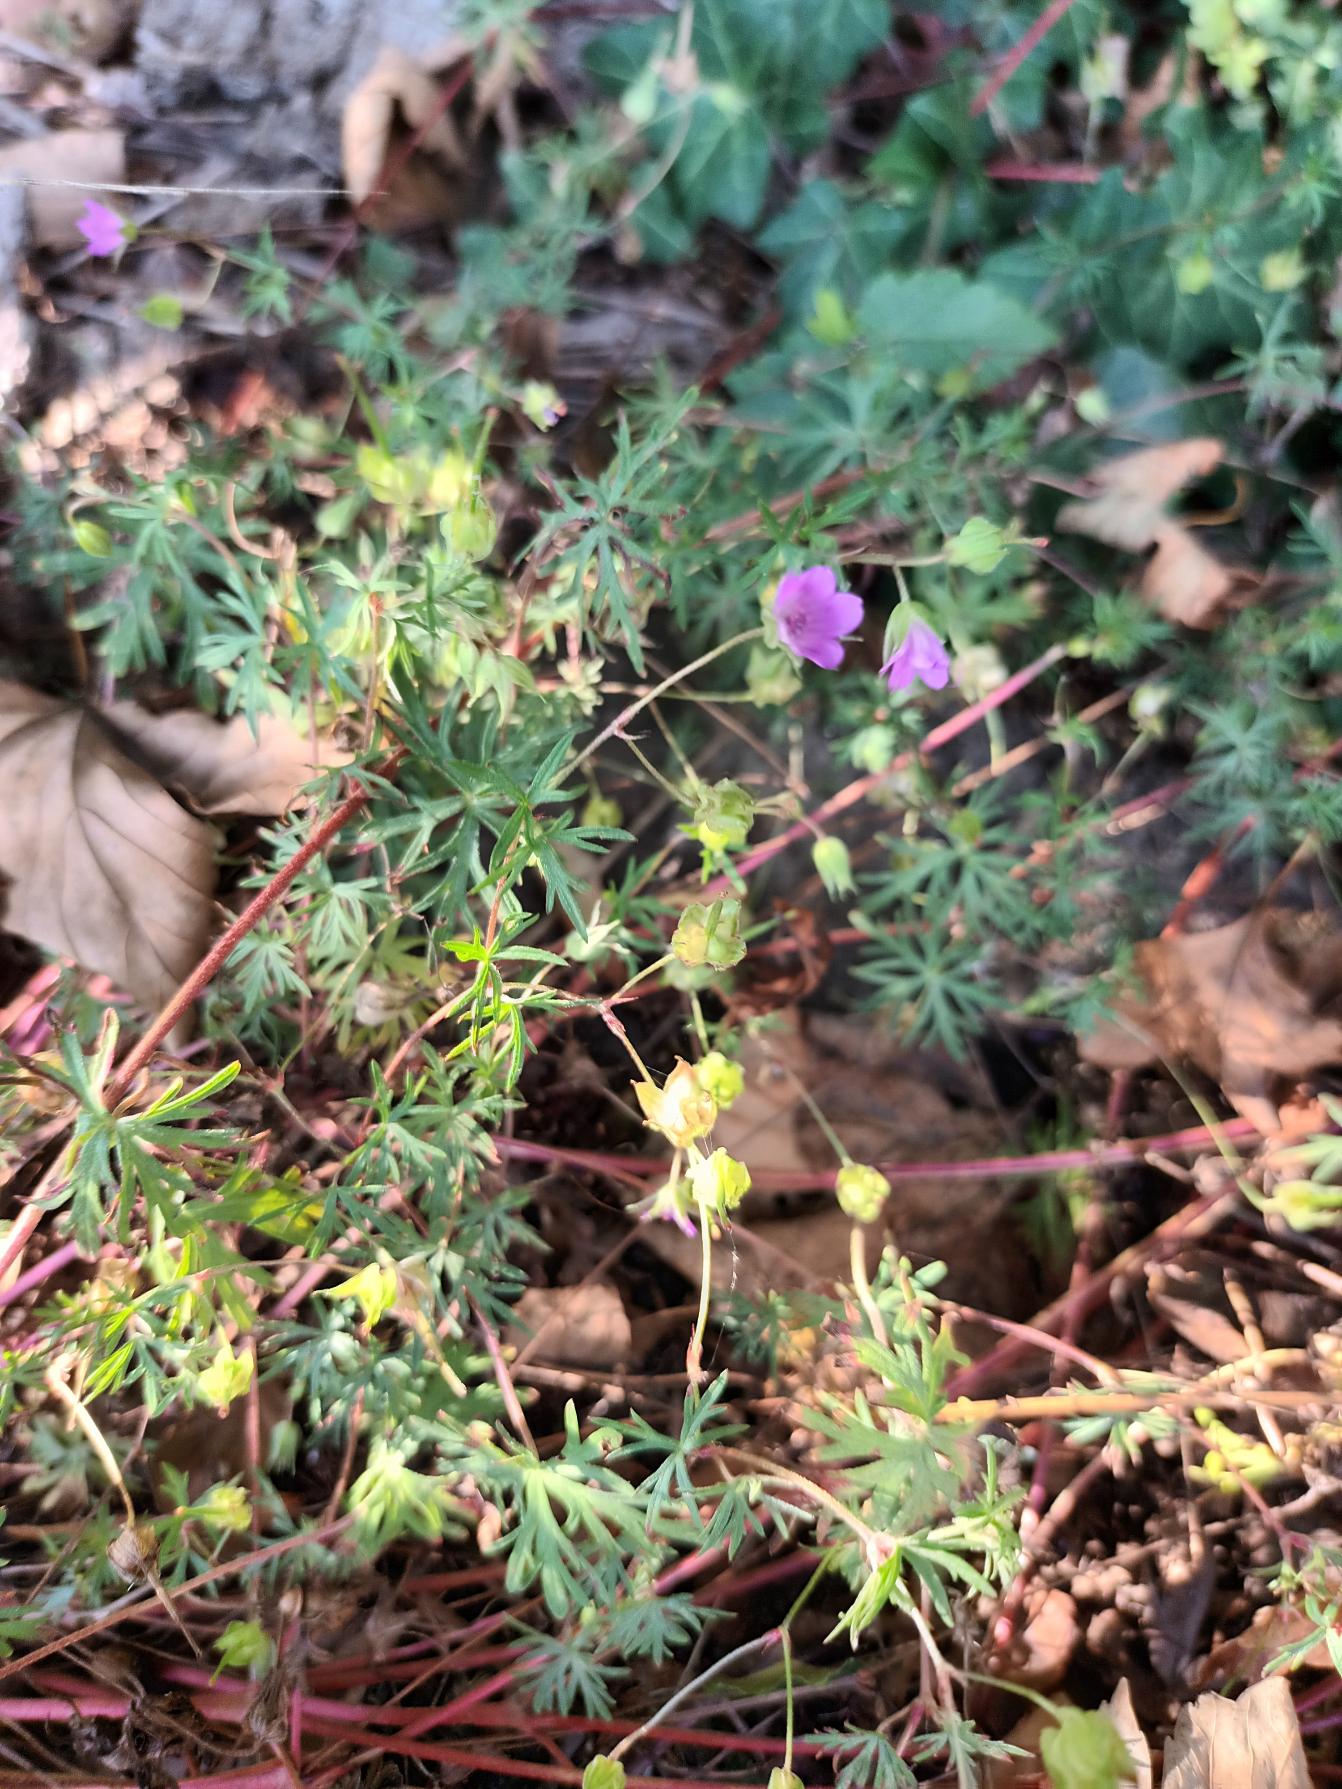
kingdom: Plantae
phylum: Tracheophyta
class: Magnoliopsida
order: Geraniales
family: Geraniaceae
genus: Geranium
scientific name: Geranium columbinum
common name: Storbægret storkenæb
